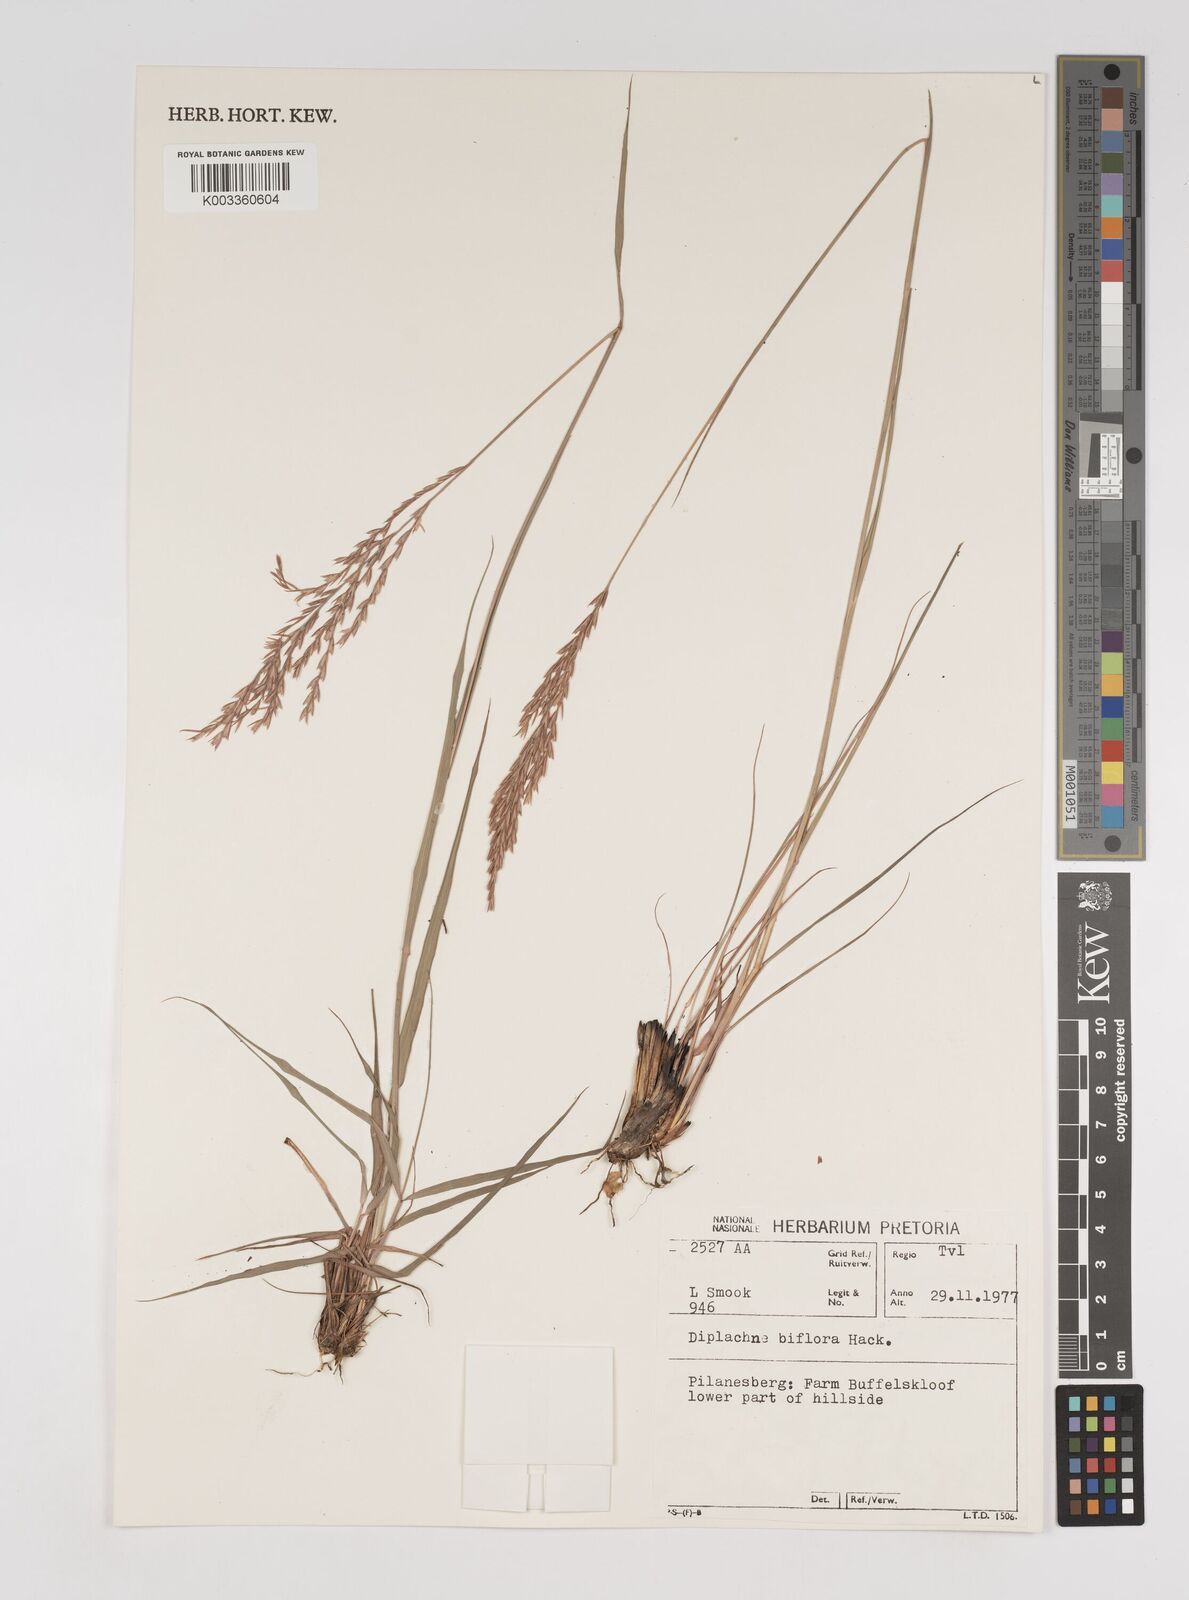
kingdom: Plantae
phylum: Tracheophyta
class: Liliopsida
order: Poales
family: Poaceae
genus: Bewsia
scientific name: Bewsia biflora
